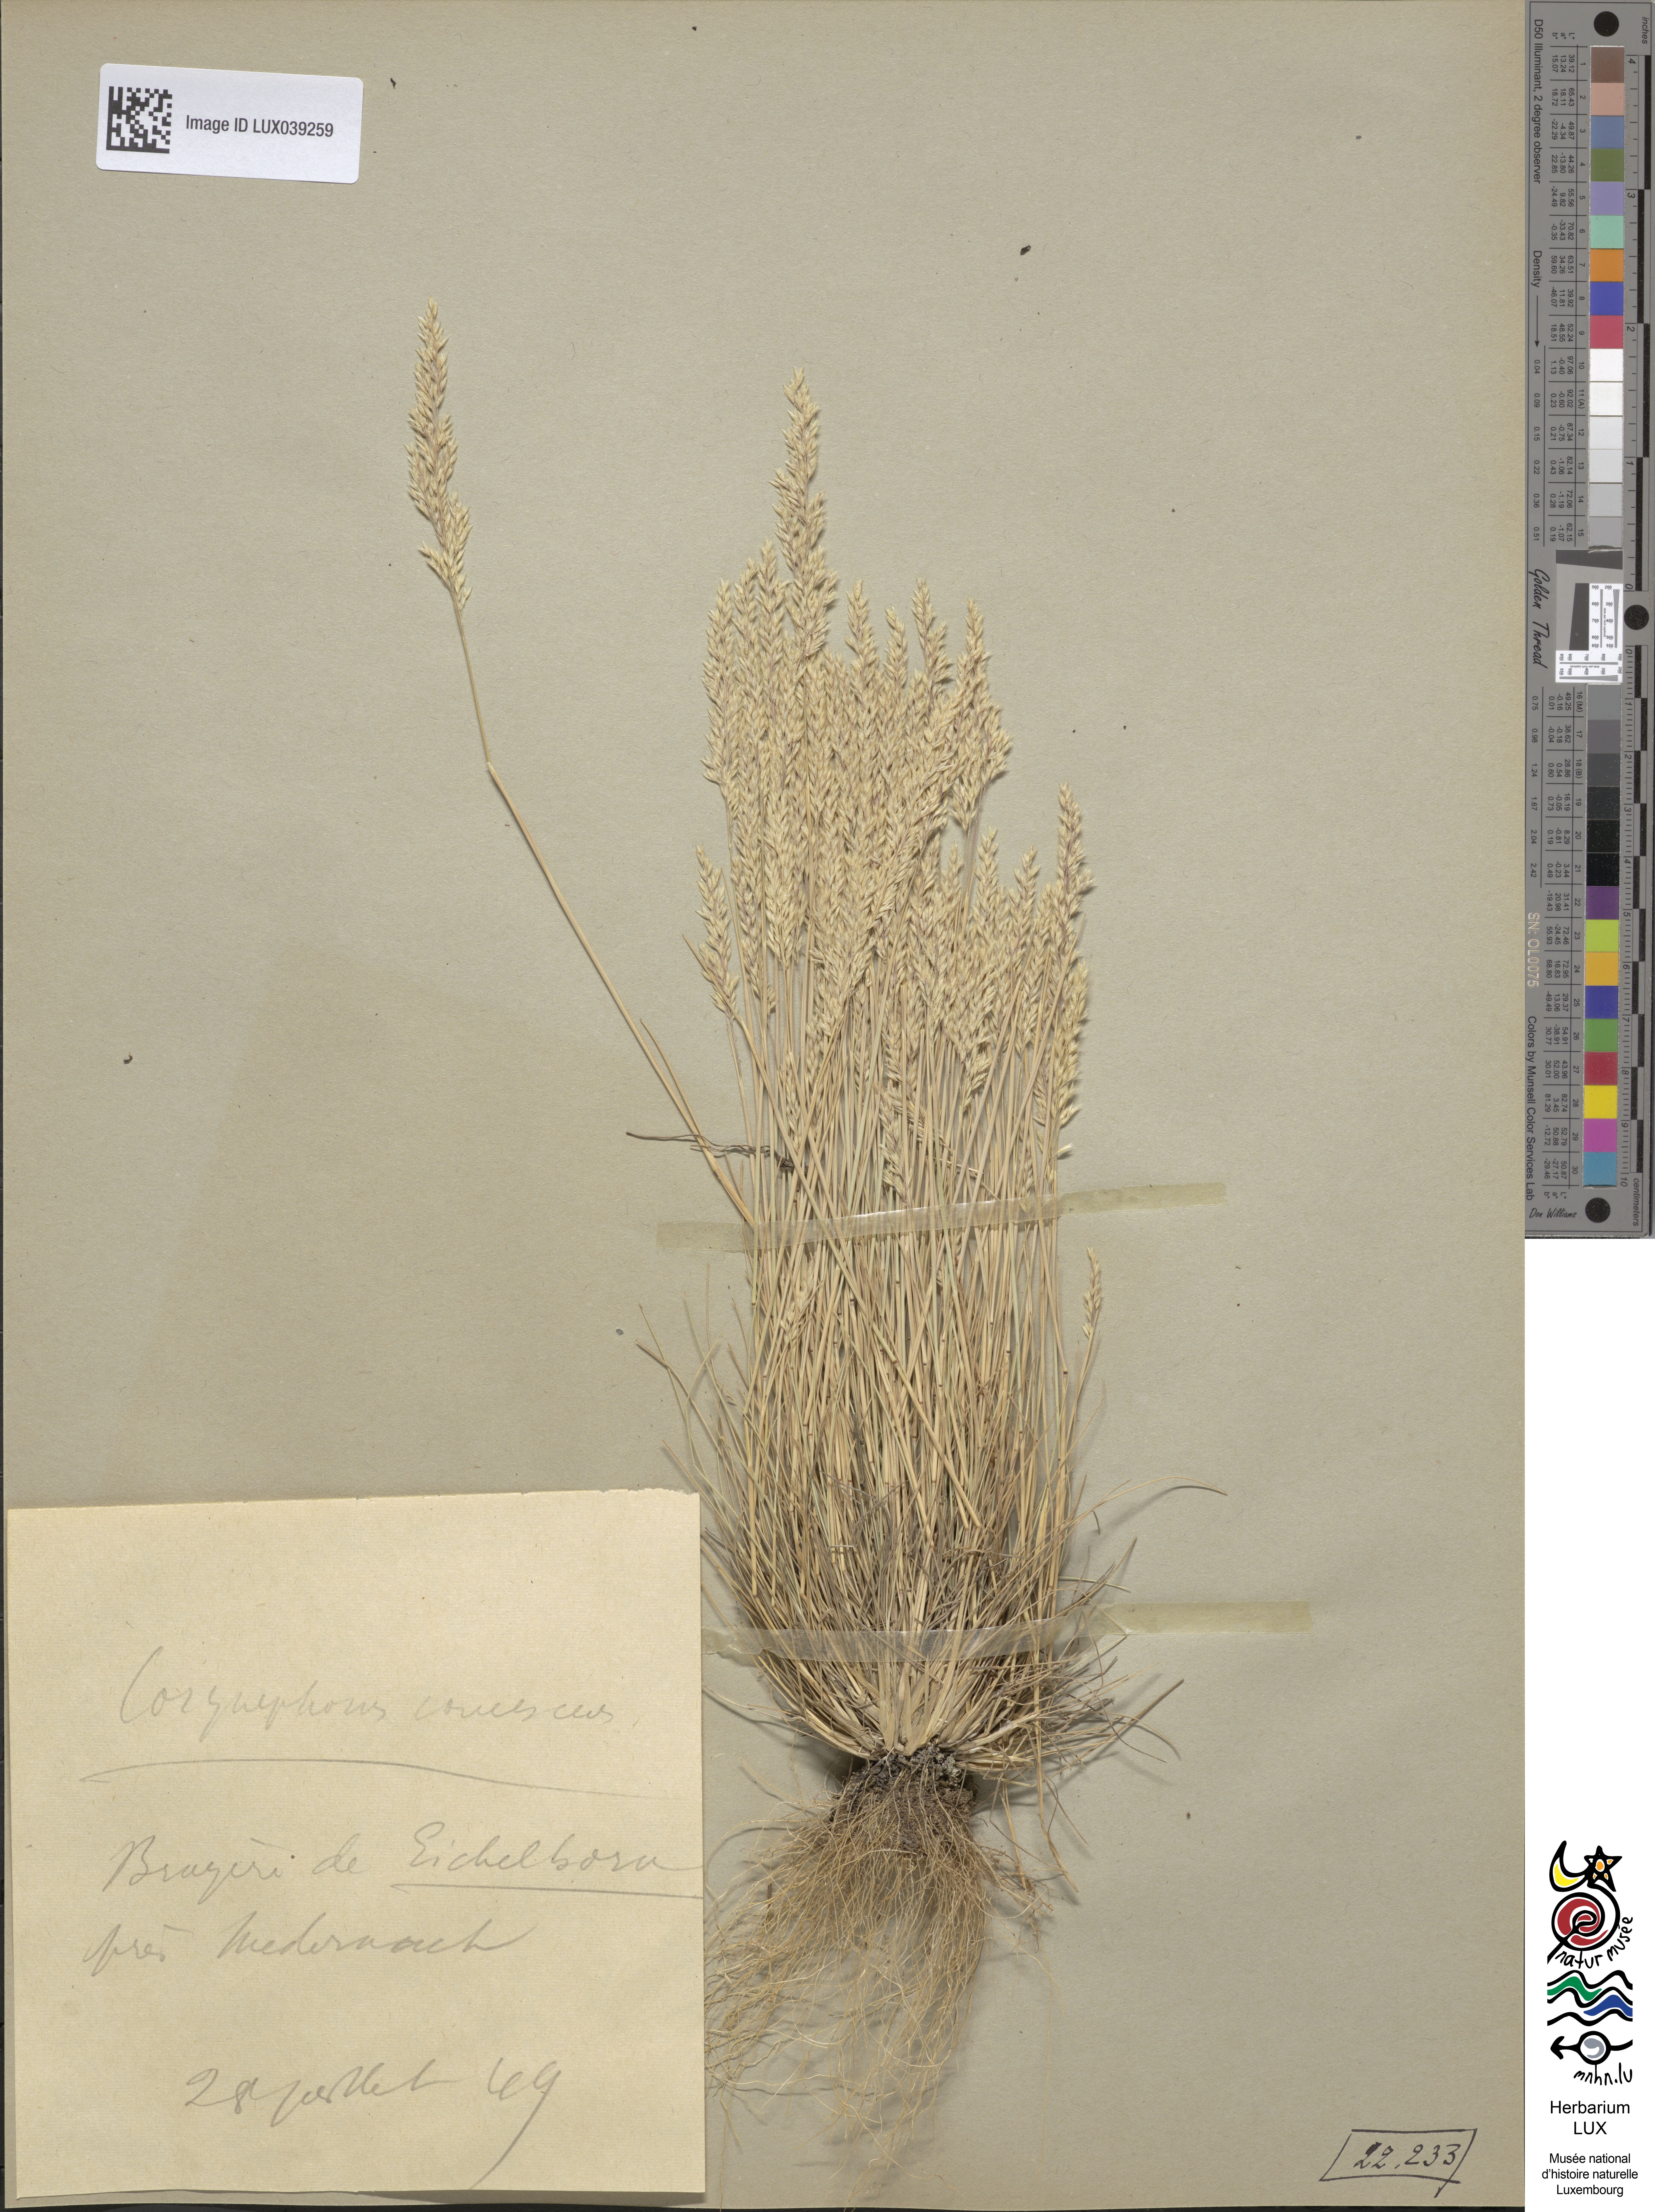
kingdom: Plantae
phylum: Tracheophyta
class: Liliopsida
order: Poales
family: Poaceae
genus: Corynephorus
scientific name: Corynephorus canescens
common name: Grey hair-grass
